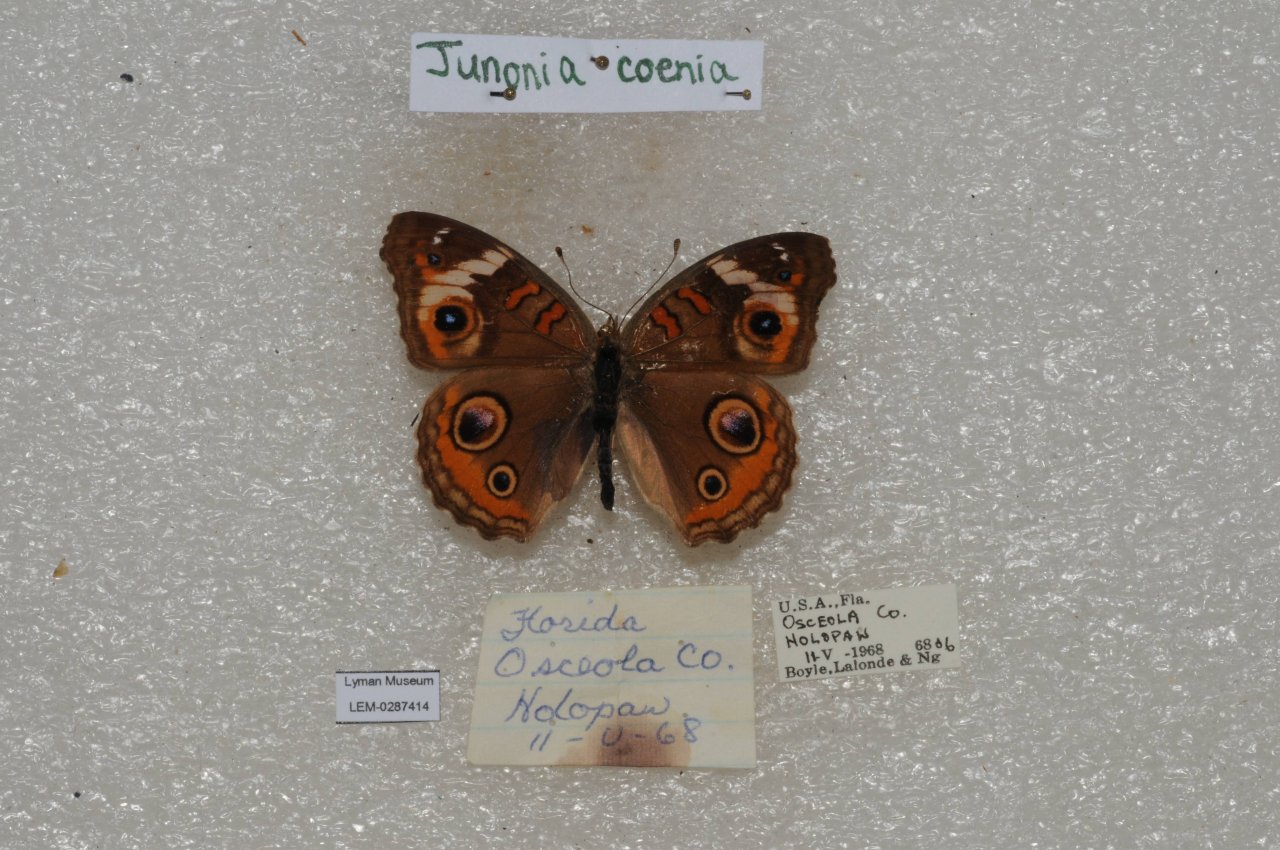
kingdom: Animalia
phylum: Arthropoda
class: Insecta
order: Lepidoptera
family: Nymphalidae
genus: Junonia
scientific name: Junonia coenia
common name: Common Buckeye
